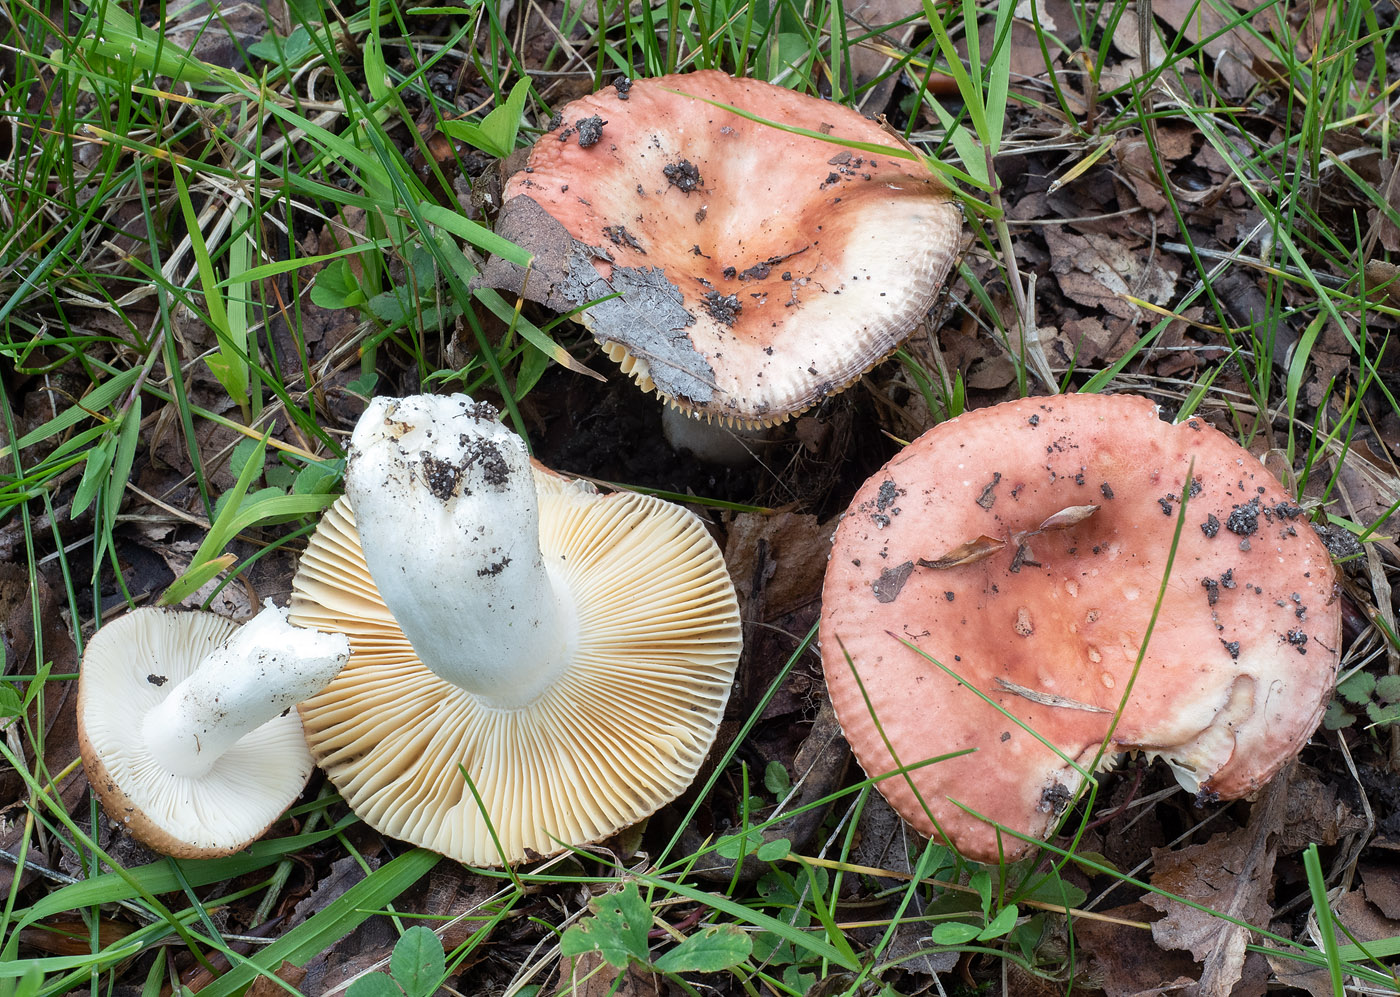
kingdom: Fungi
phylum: Basidiomycota
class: Agaricomycetes
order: Russulales
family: Russulaceae
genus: Russula
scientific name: Russula laeta
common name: orangerosa skørhat
